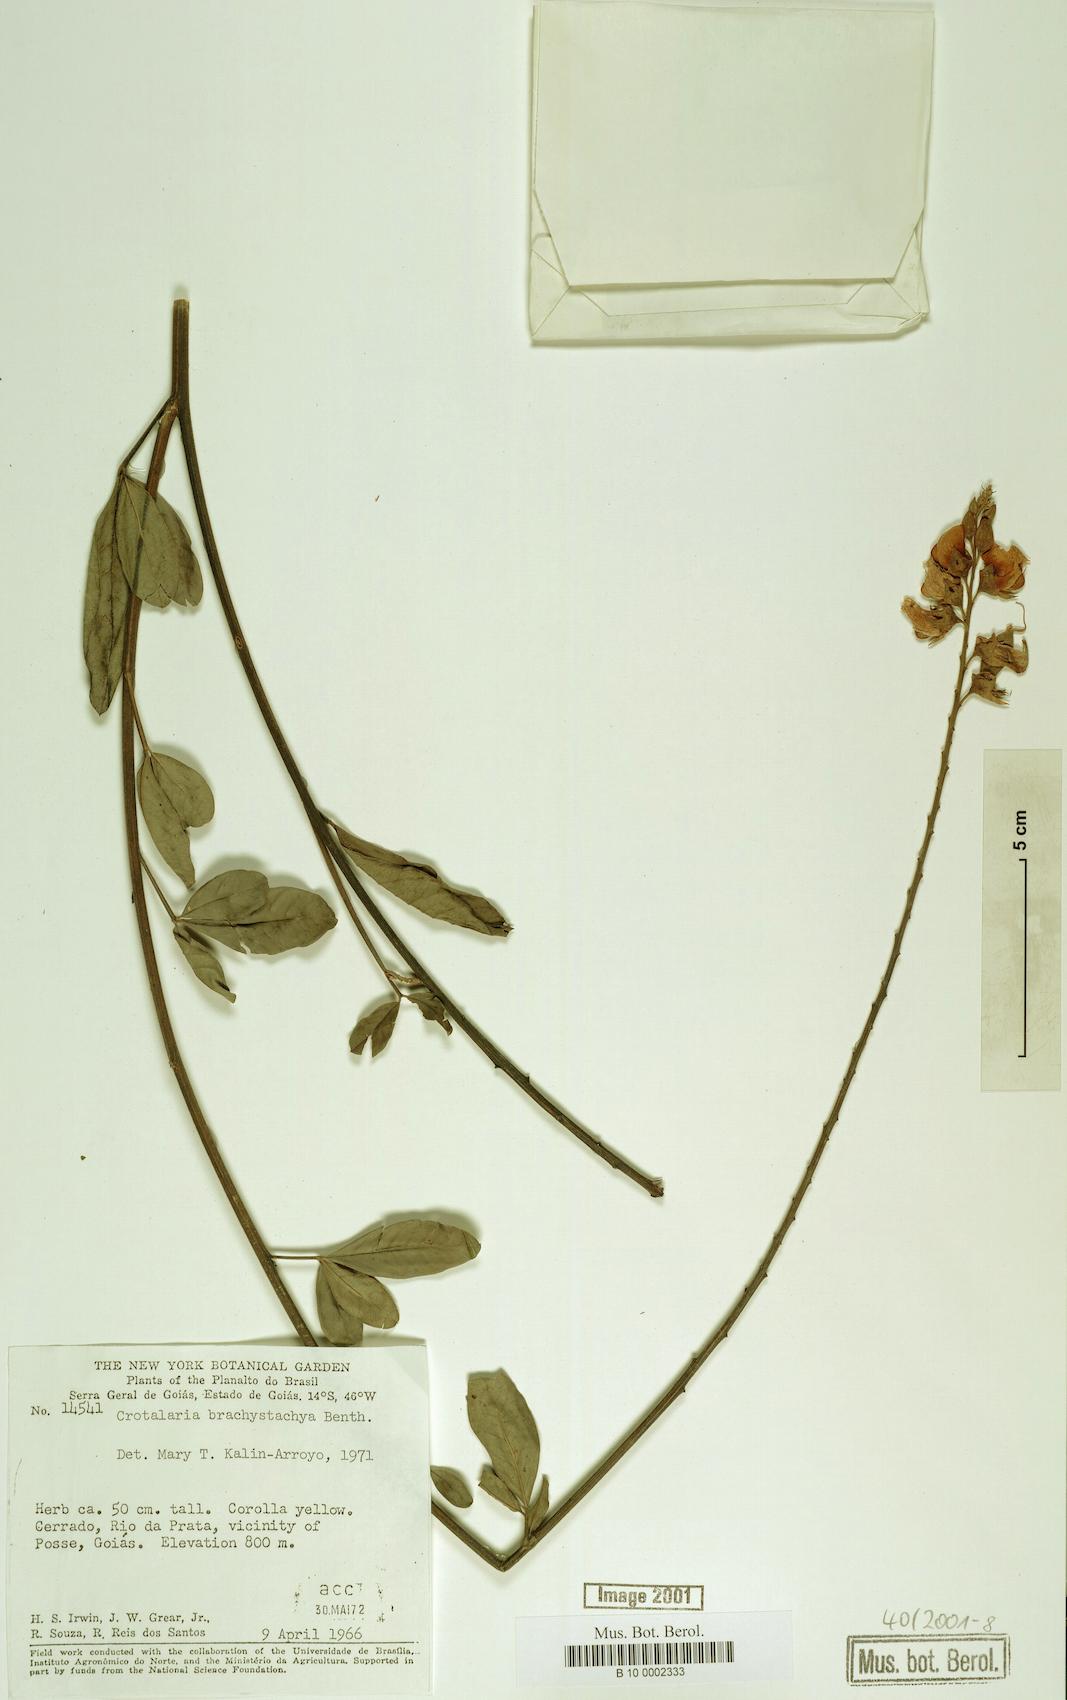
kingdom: Plantae
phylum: Tracheophyta
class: Magnoliopsida
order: Fabales
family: Fabaceae
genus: Crotalaria
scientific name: Crotalaria micans
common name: Caracas rattlebox
